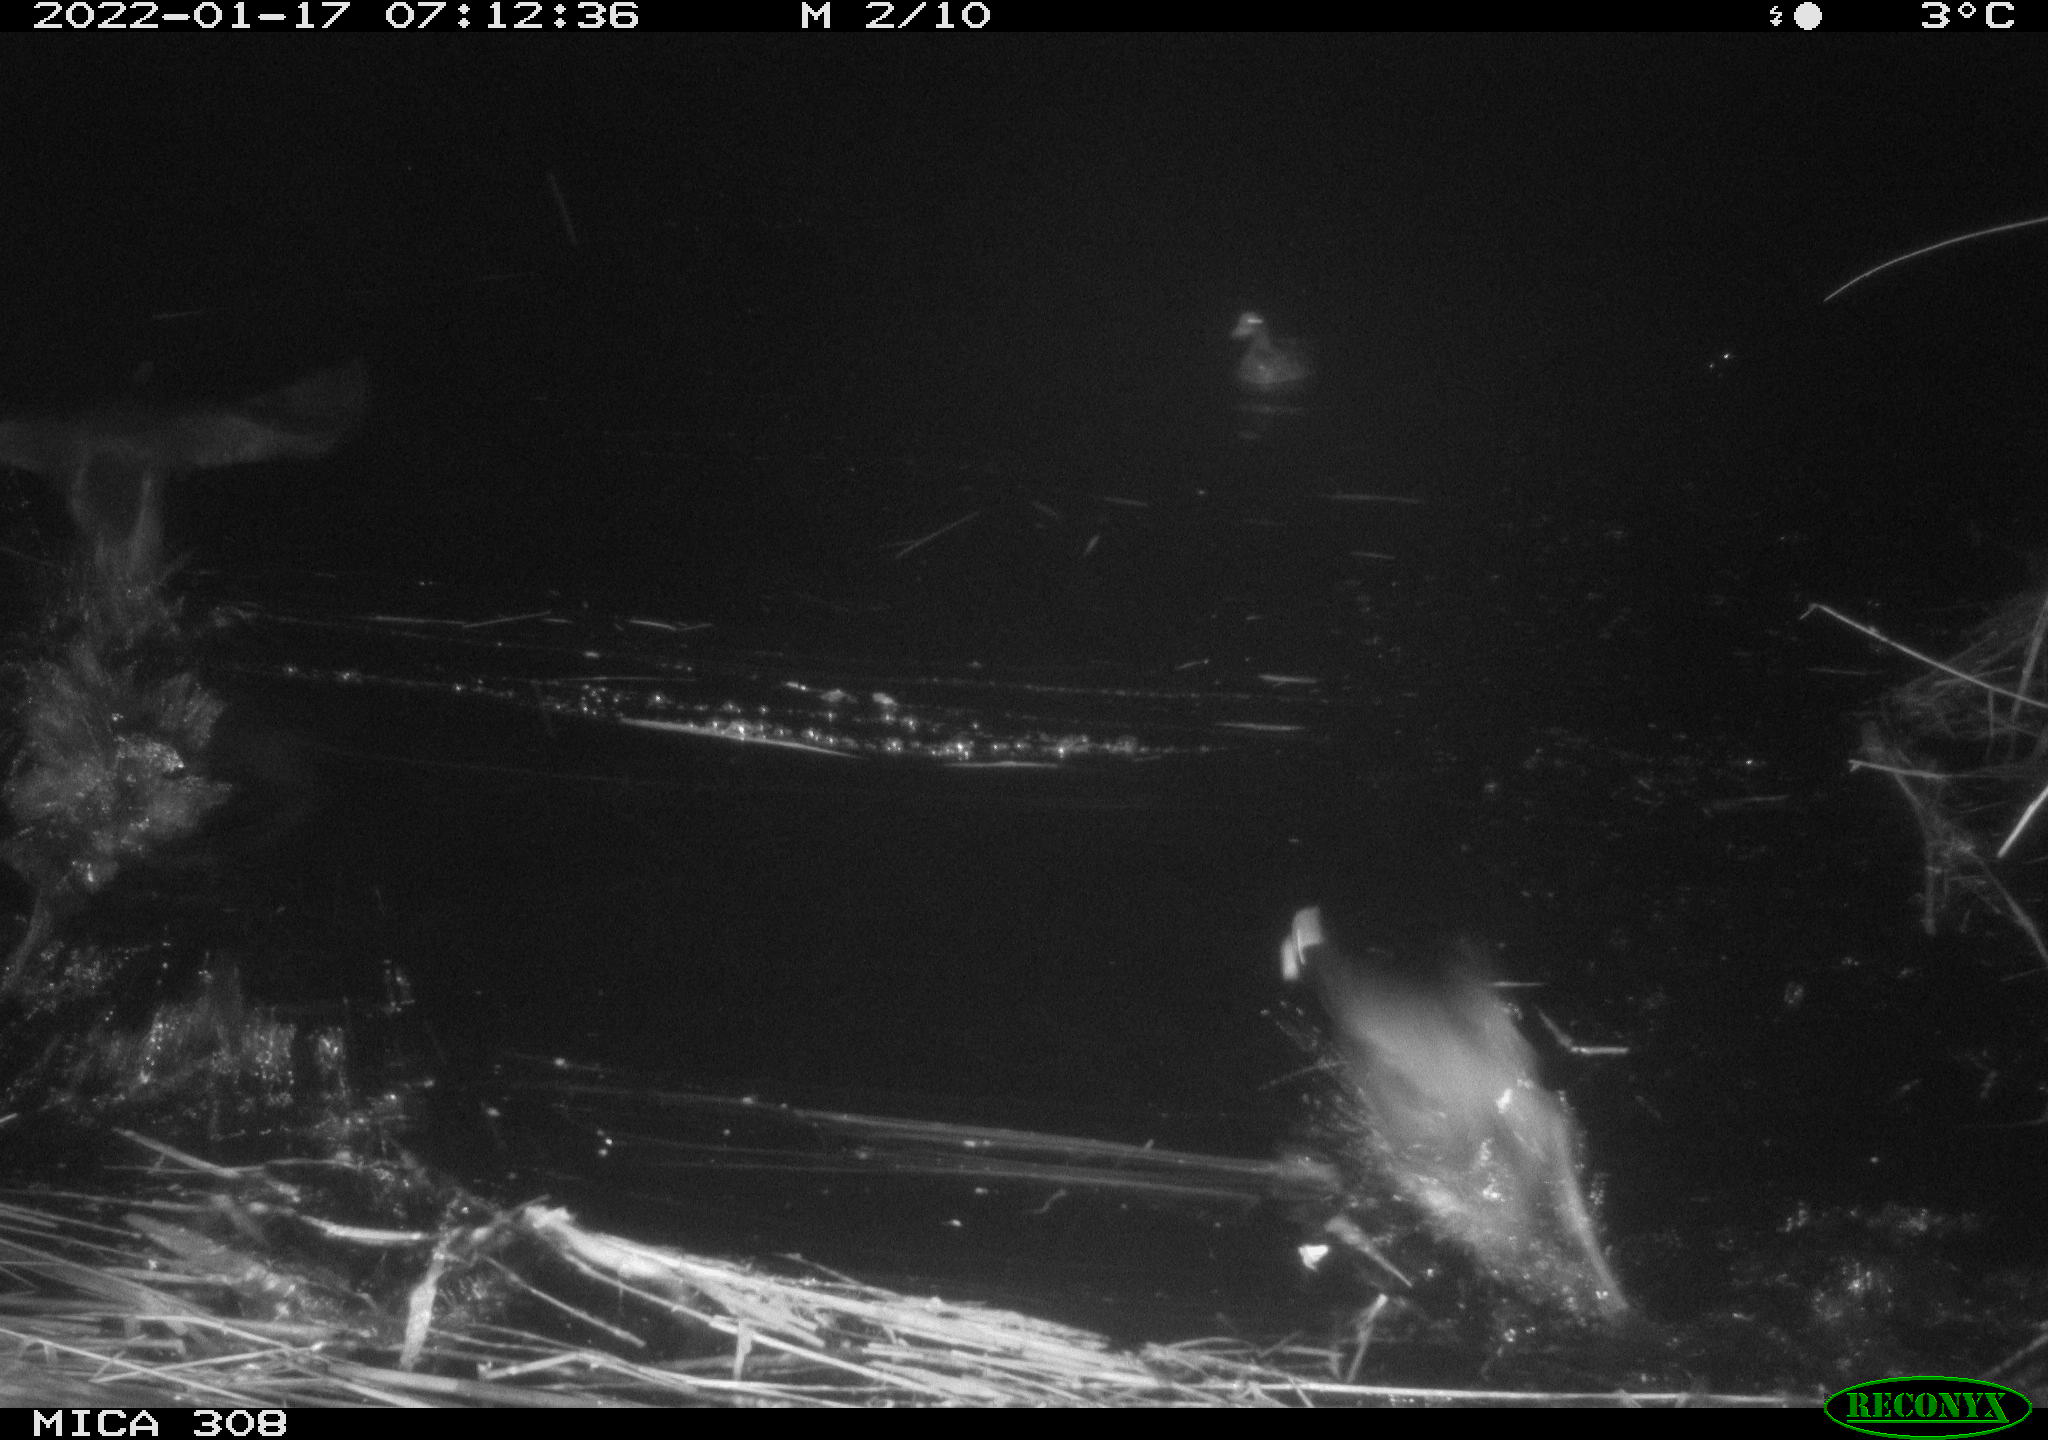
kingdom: Animalia
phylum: Chordata
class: Aves
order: Gruiformes
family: Rallidae
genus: Fulica
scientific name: Fulica atra
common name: Eurasian coot
